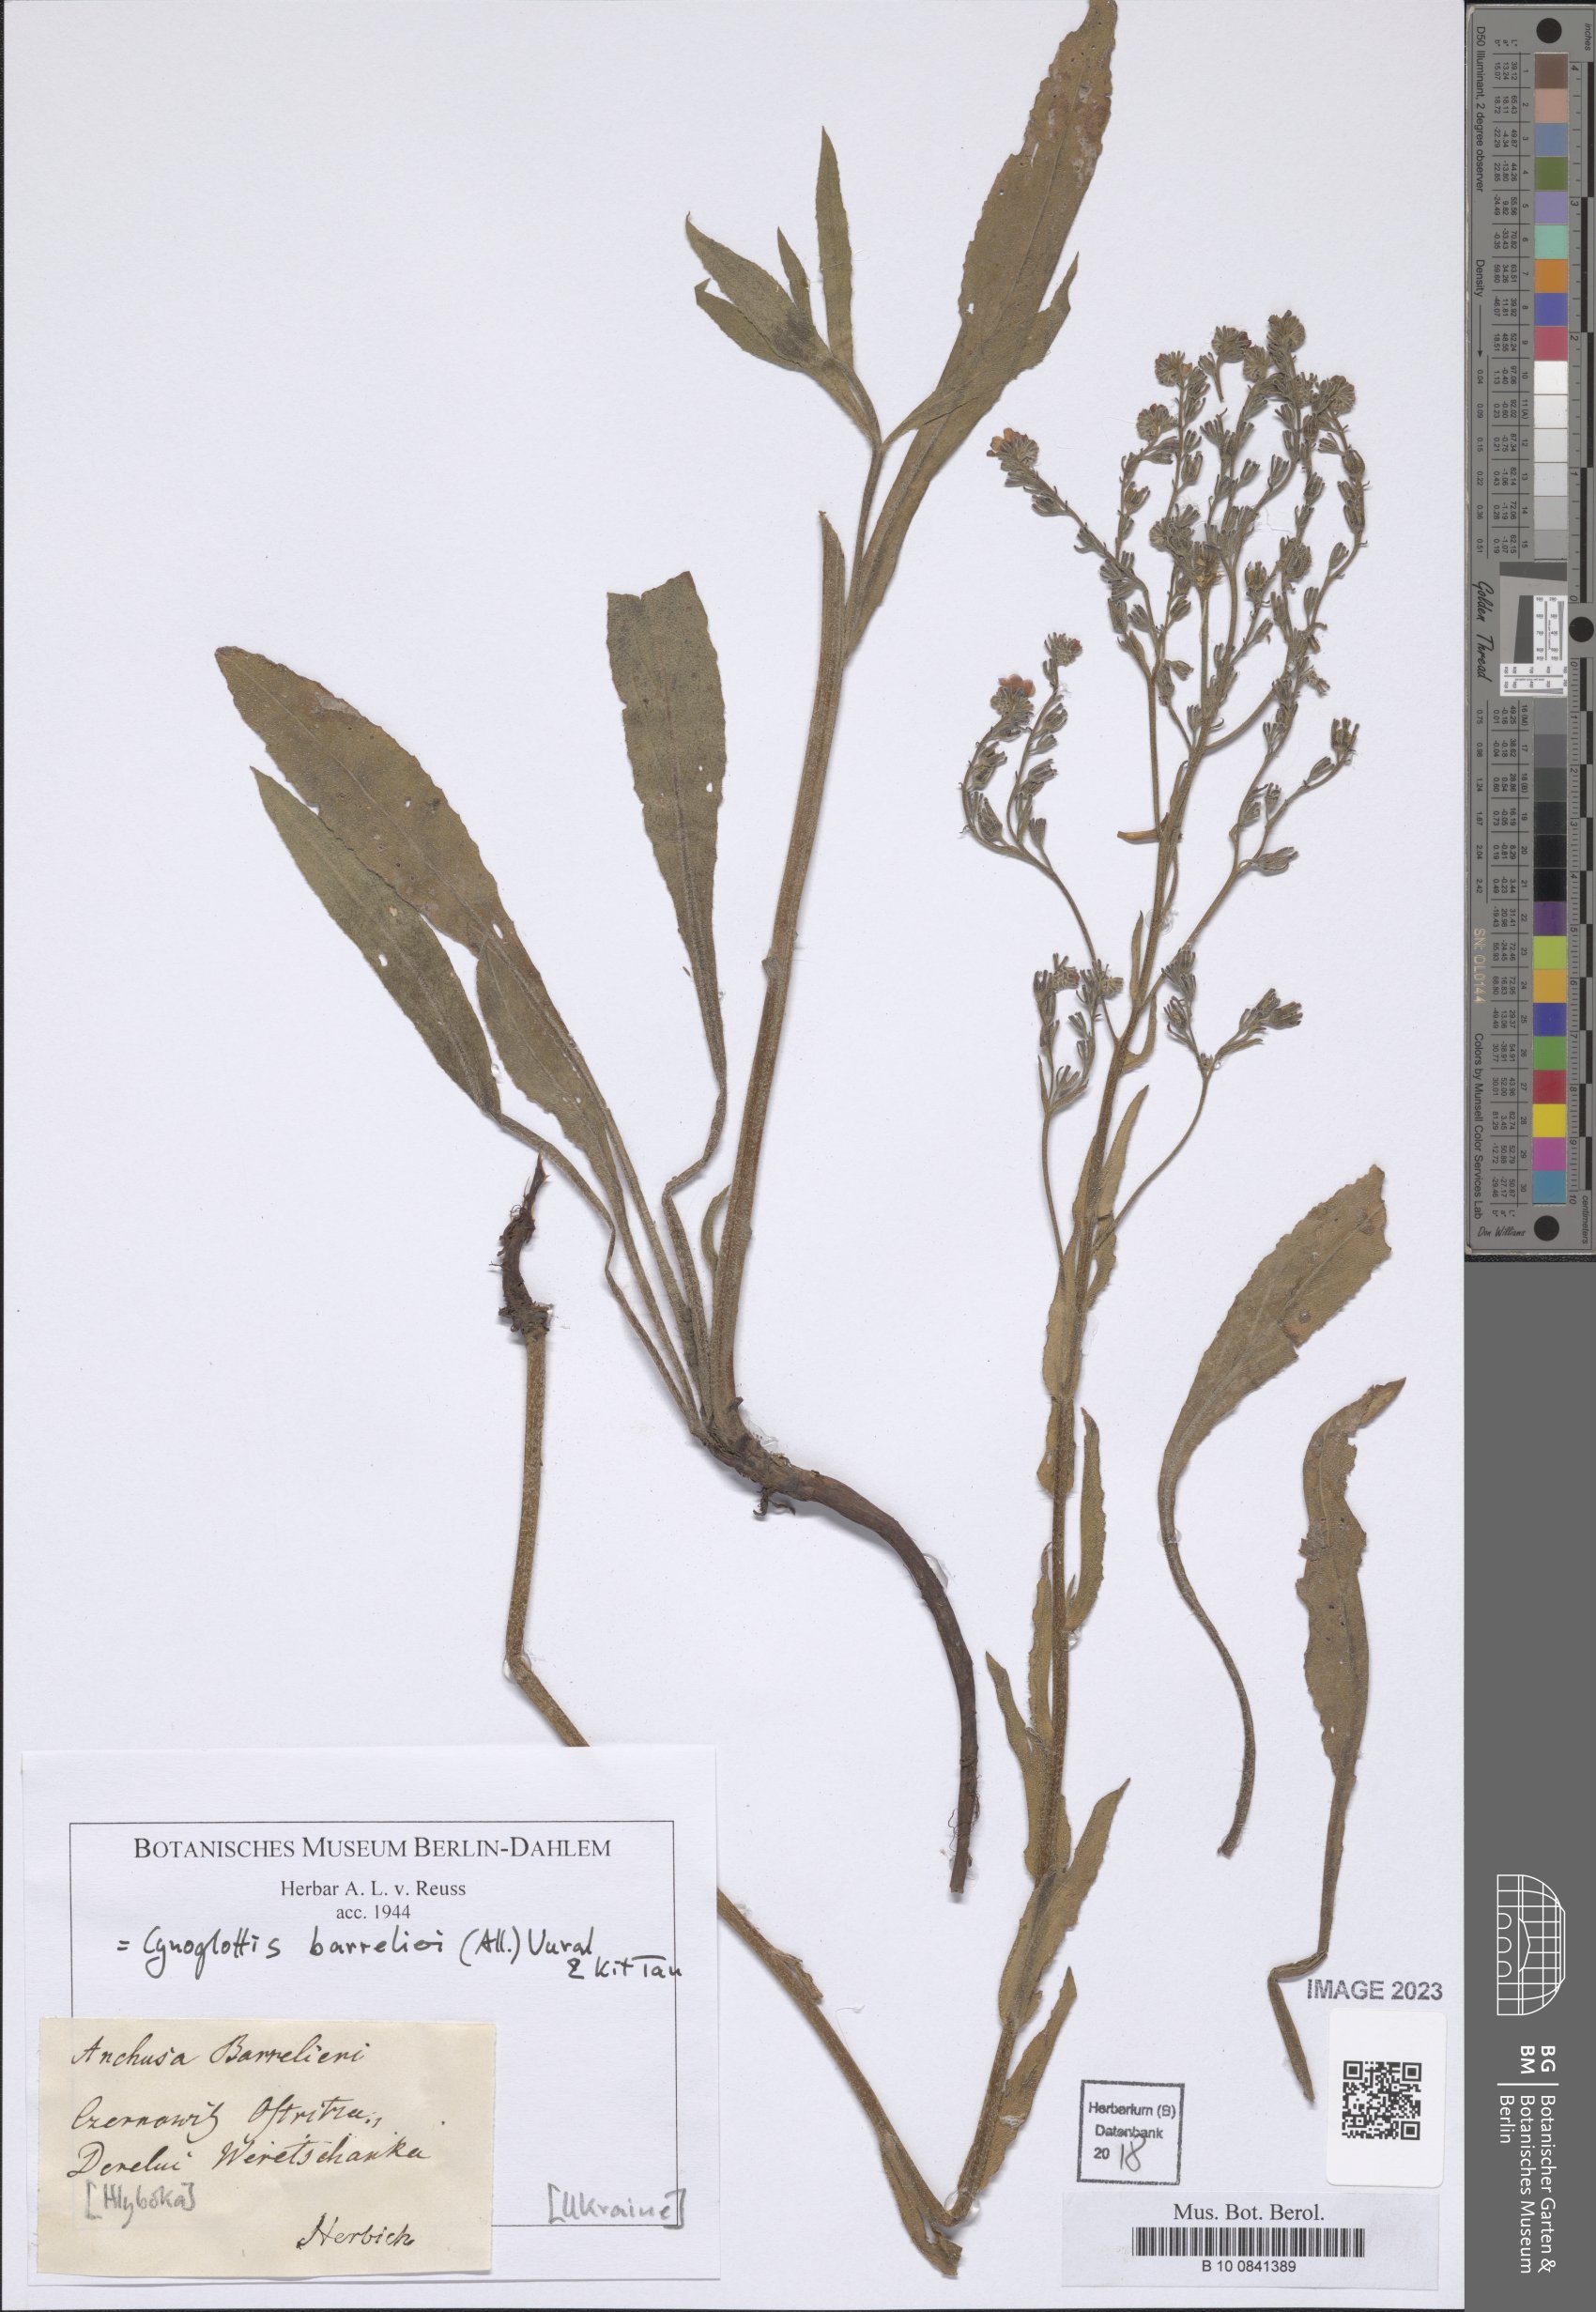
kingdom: Plantae
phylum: Tracheophyta
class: Magnoliopsida
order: Boraginales
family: Boraginaceae
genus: Cynoglottis
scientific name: Cynoglottis barrelieri
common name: False alkanet
